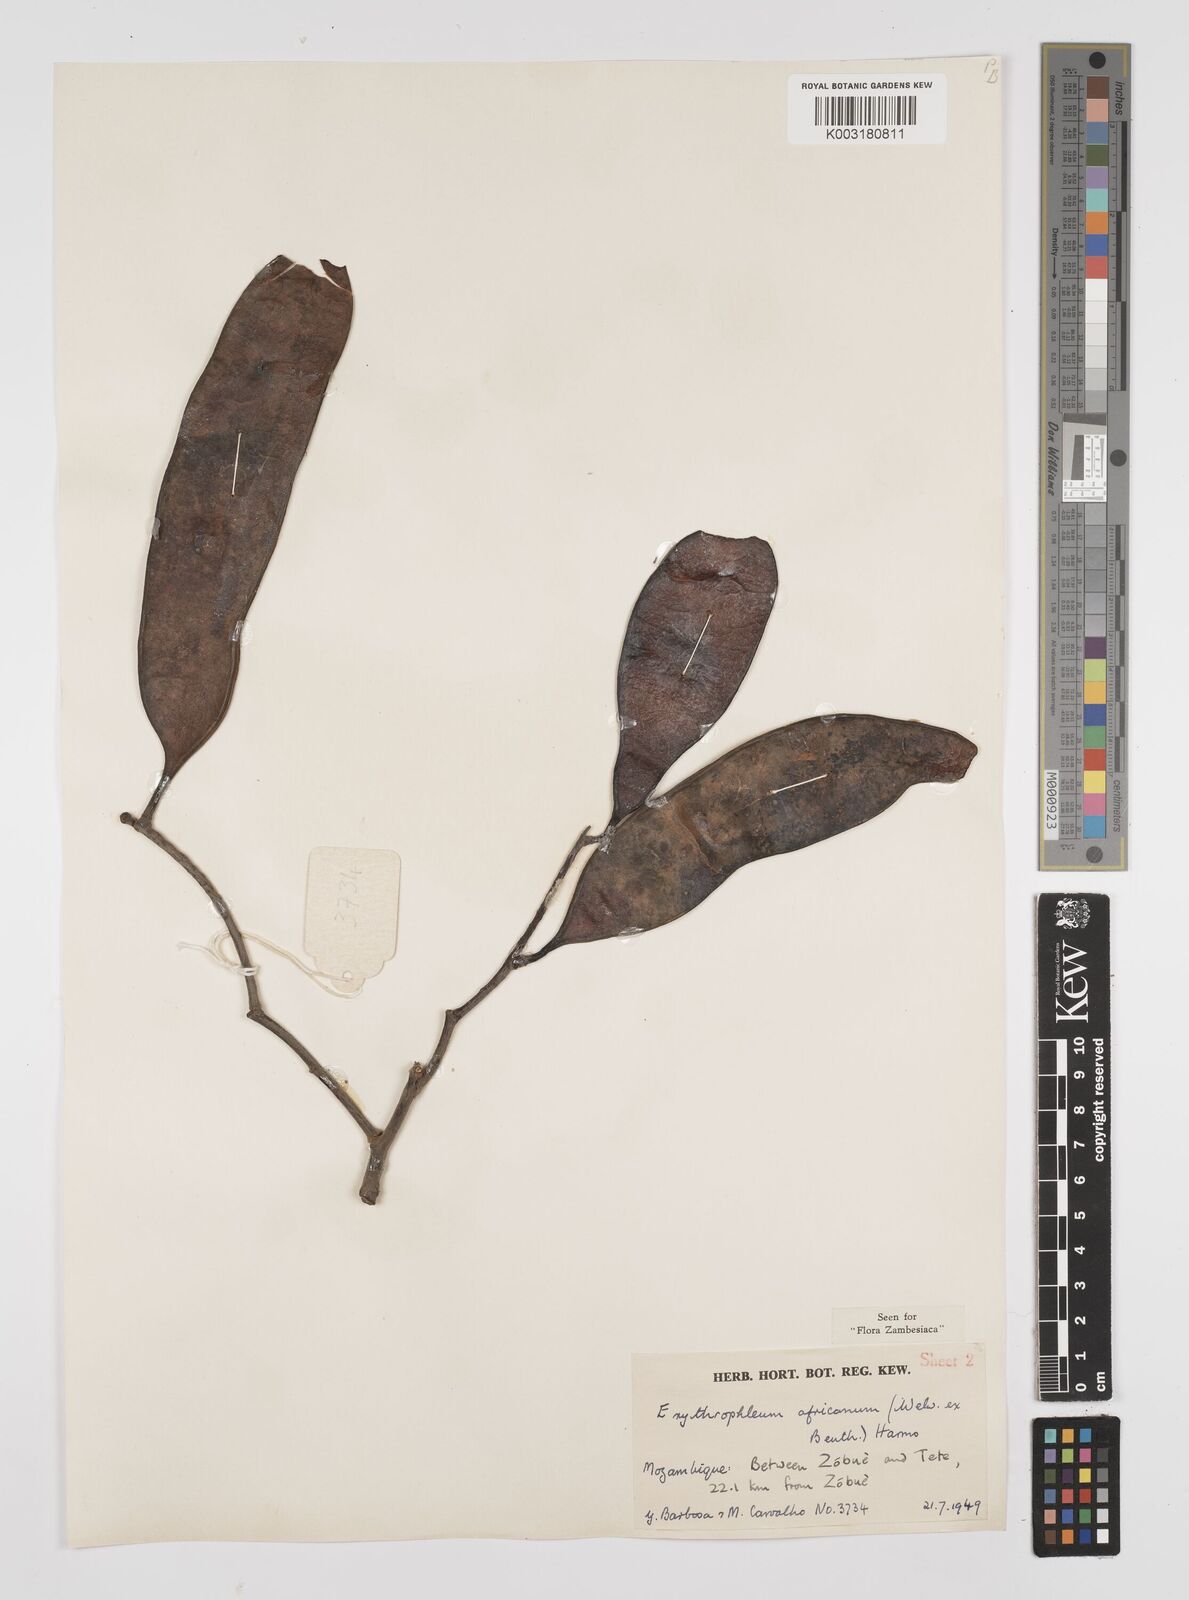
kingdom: Plantae
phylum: Tracheophyta
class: Magnoliopsida
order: Fabales
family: Fabaceae
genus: Peltophorum
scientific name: Peltophorum africanum
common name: African black wattle
